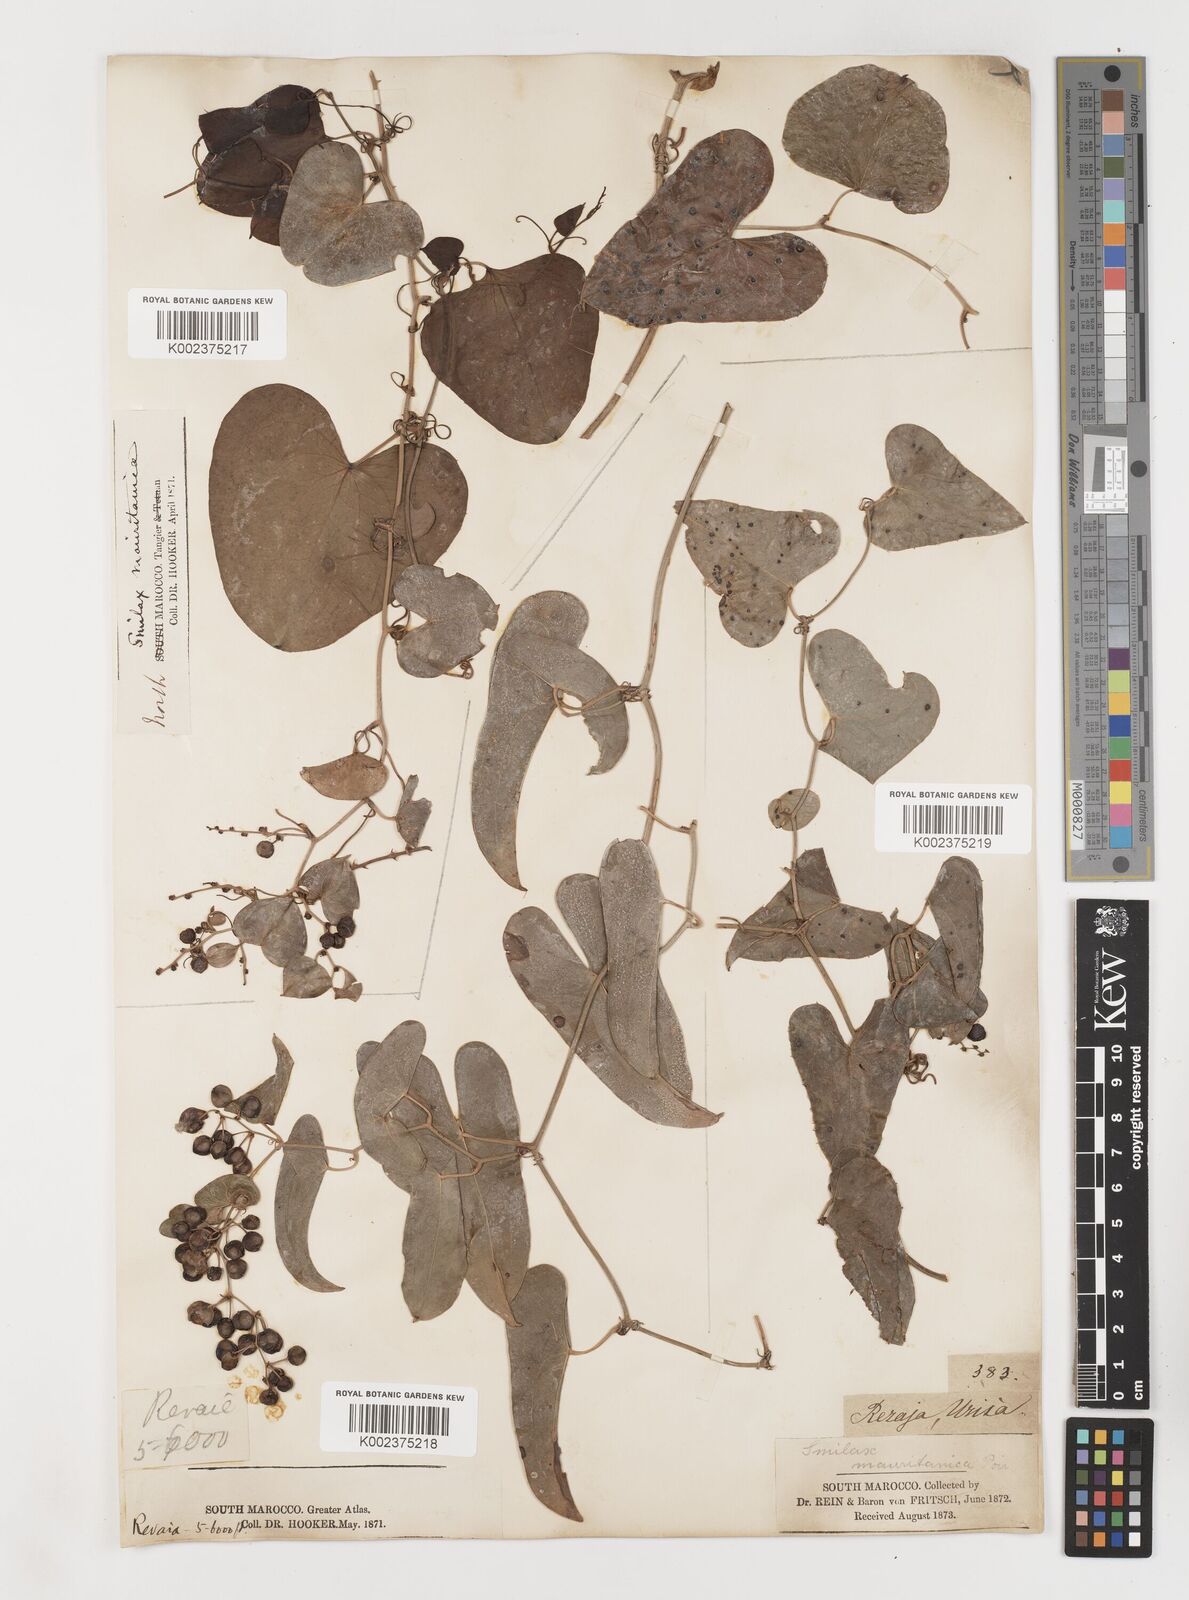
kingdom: Plantae
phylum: Tracheophyta
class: Liliopsida
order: Liliales
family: Smilacaceae
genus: Smilax
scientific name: Smilax aspera
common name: Common smilax
